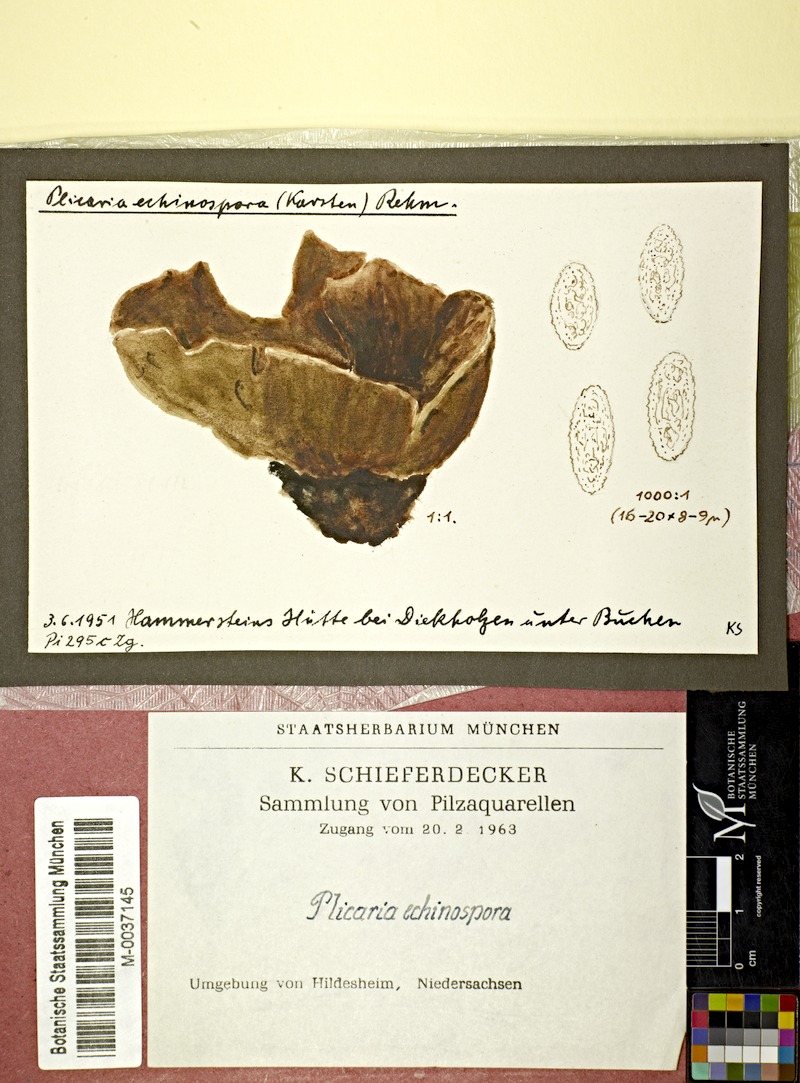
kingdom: Fungi
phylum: Ascomycota
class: Pezizomycetes
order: Pezizales
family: Pezizaceae
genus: Peziza
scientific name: Peziza echinospora
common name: Charcoal cup
